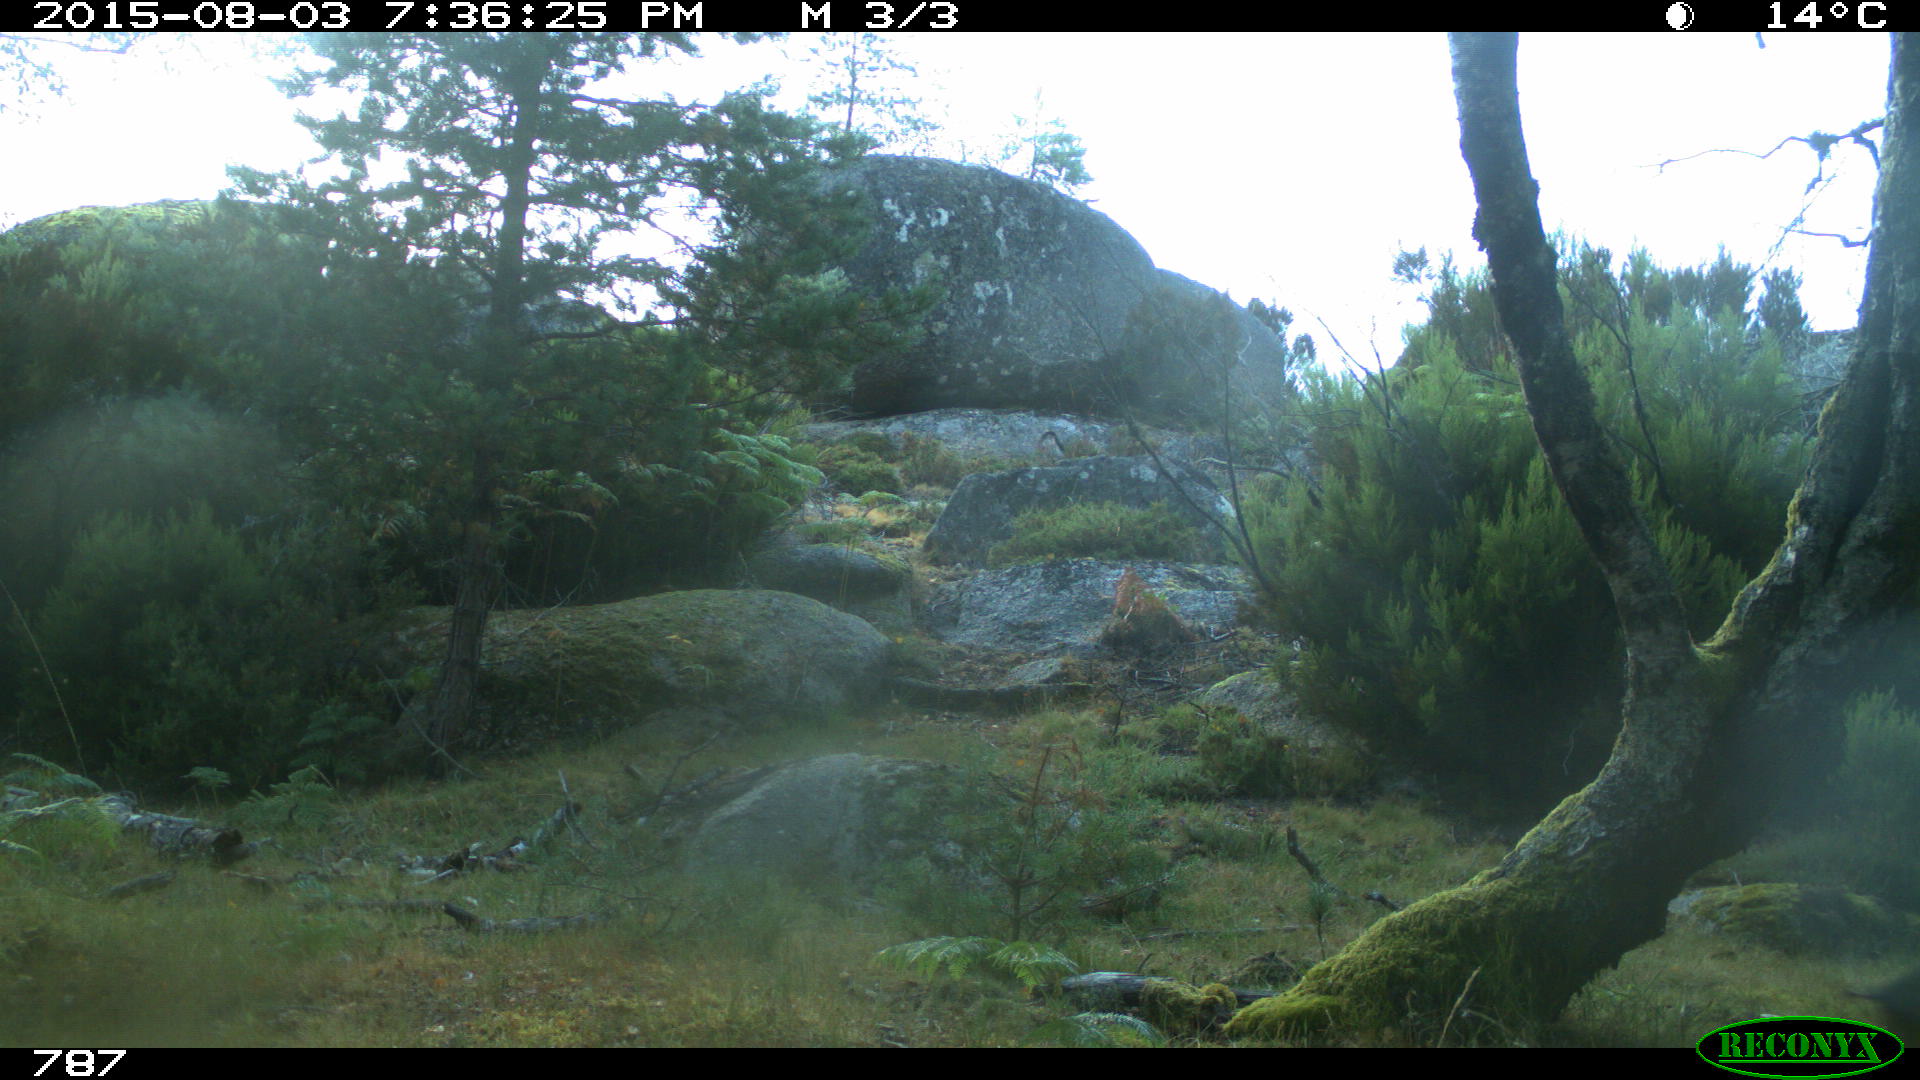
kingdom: Animalia
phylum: Chordata
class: Mammalia
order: Artiodactyla
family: Suidae
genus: Sus
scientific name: Sus scrofa
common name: Wild boar
